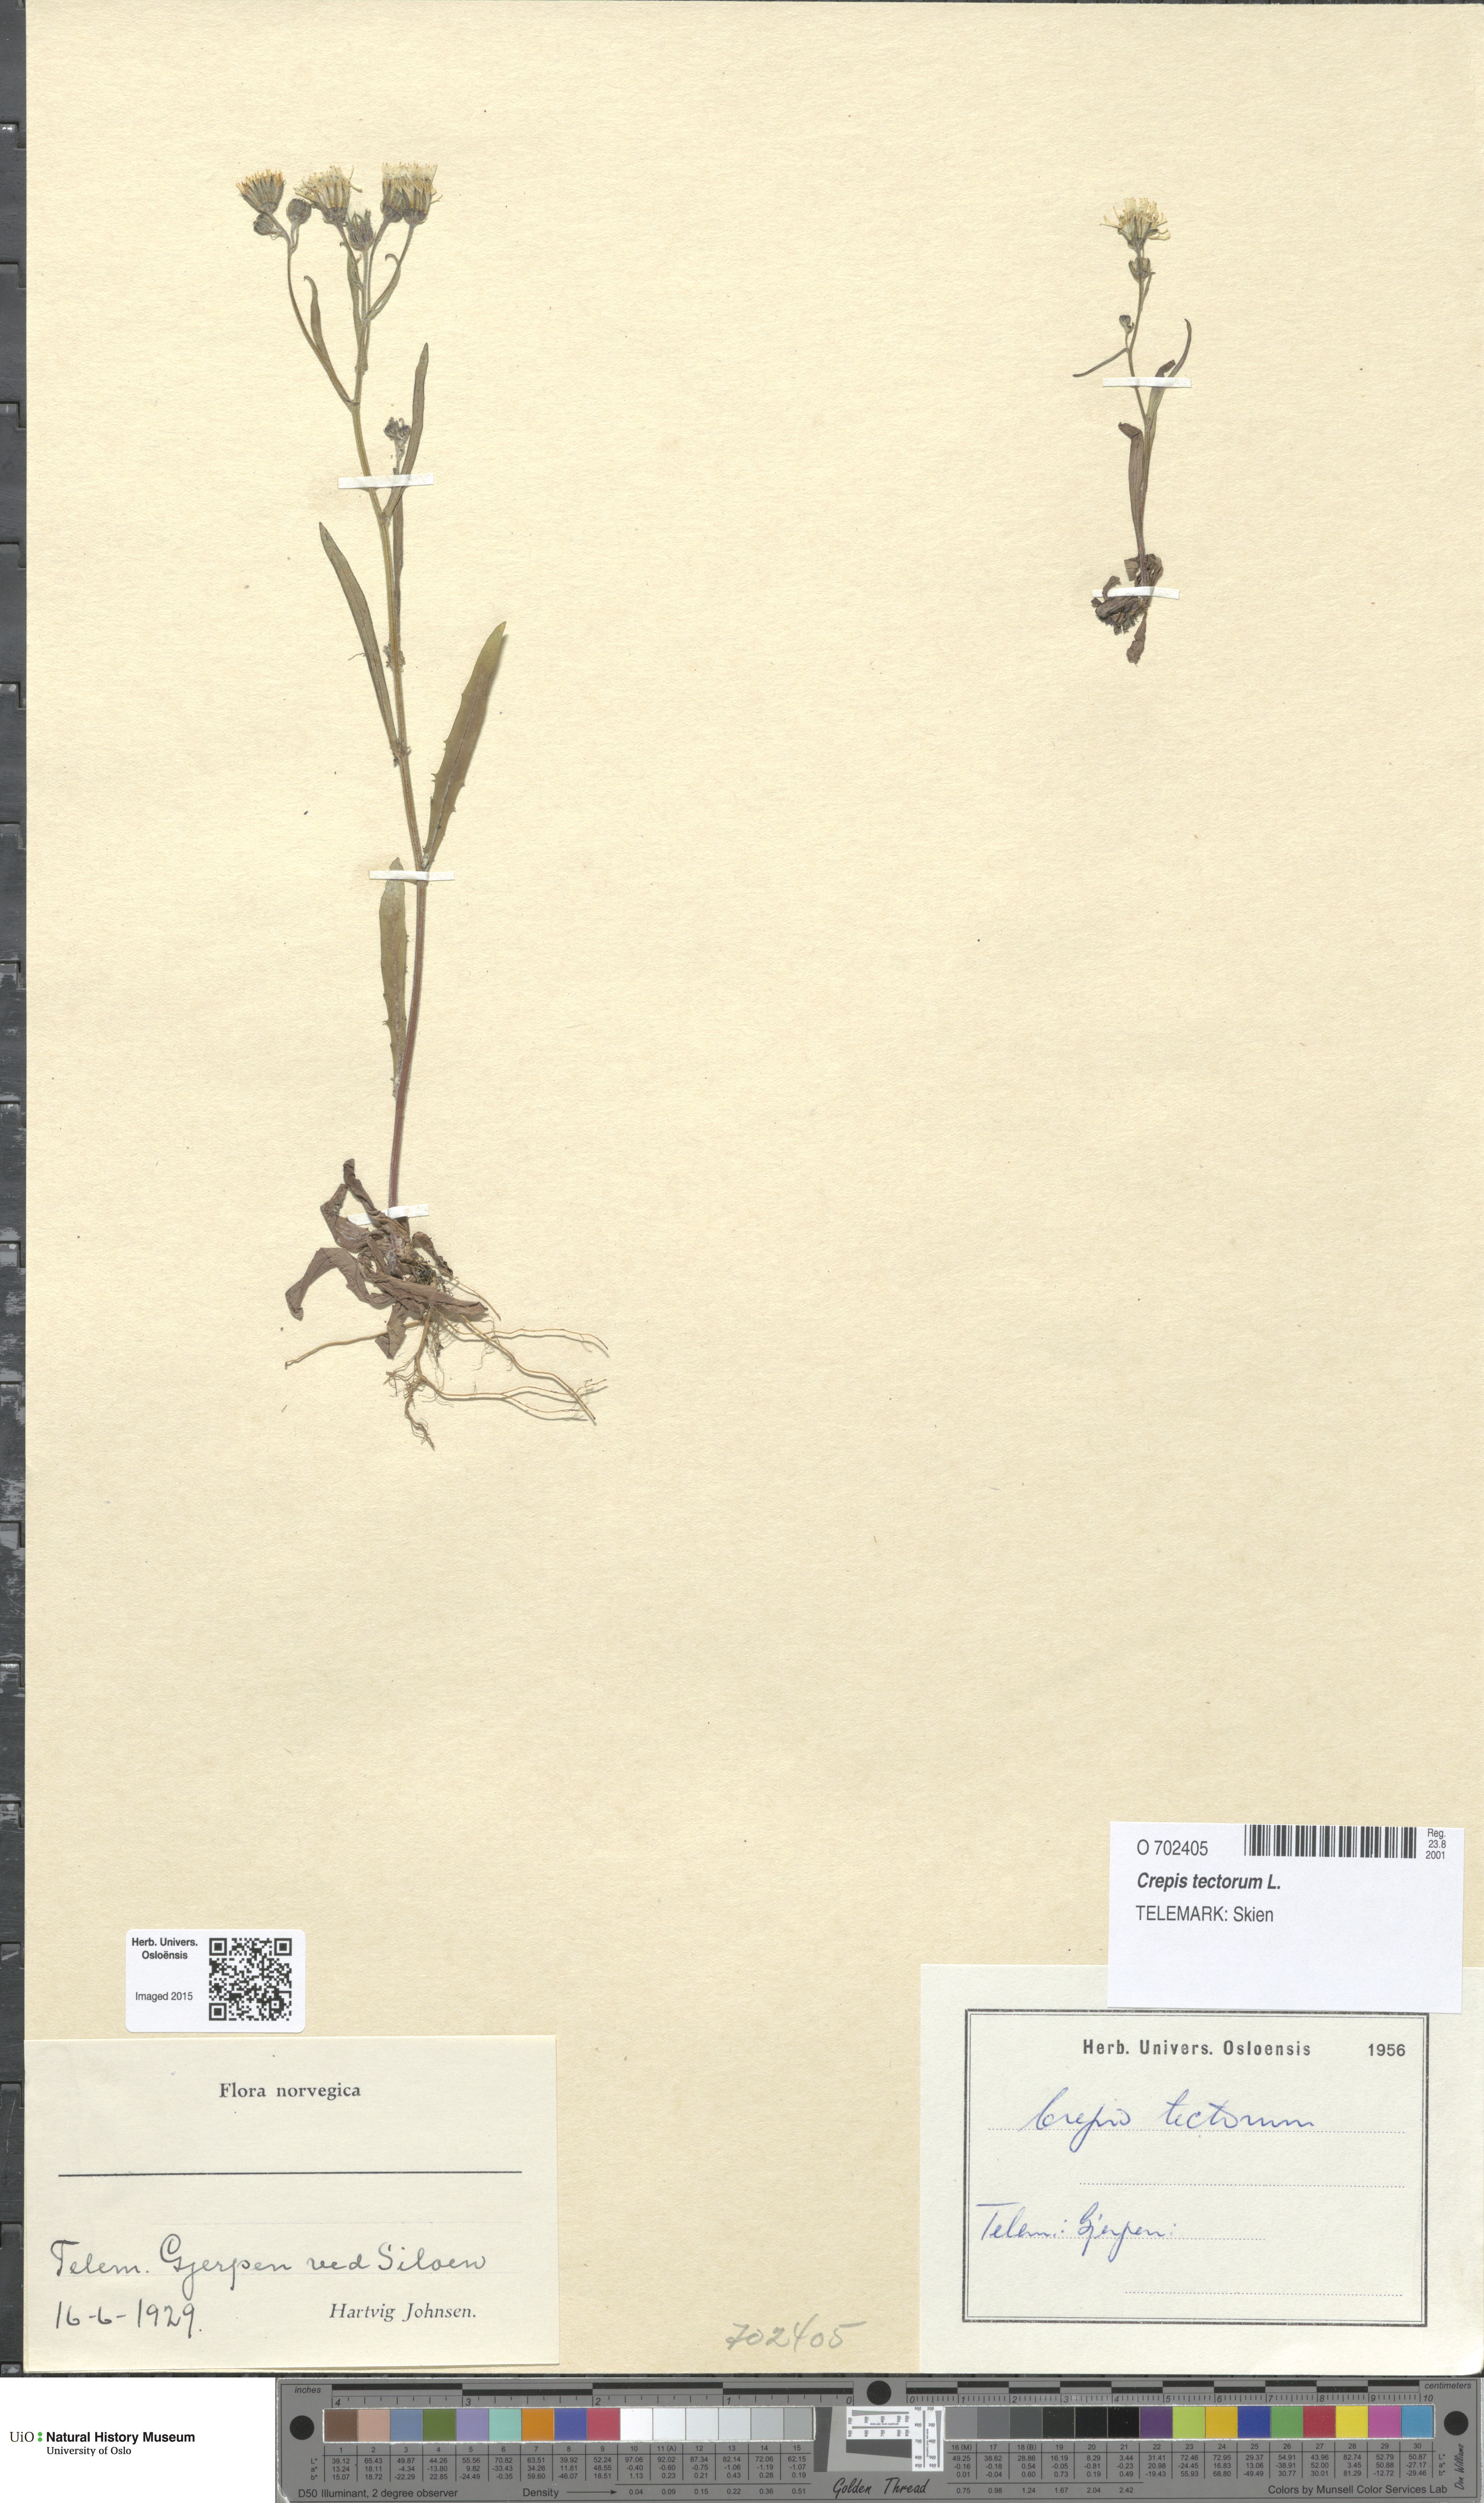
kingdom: Plantae
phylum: Tracheophyta
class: Magnoliopsida
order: Asterales
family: Asteraceae
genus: Crepis
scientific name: Crepis tectorum
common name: Narrow-leaved hawk's-beard
